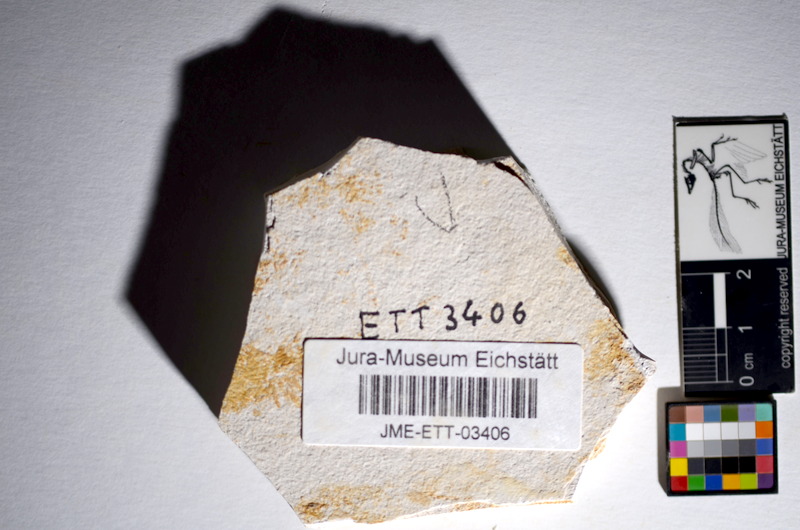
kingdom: Animalia
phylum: Chordata
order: Salmoniformes
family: Orthogonikleithridae
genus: Orthogonikleithrus
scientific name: Orthogonikleithrus hoelli
